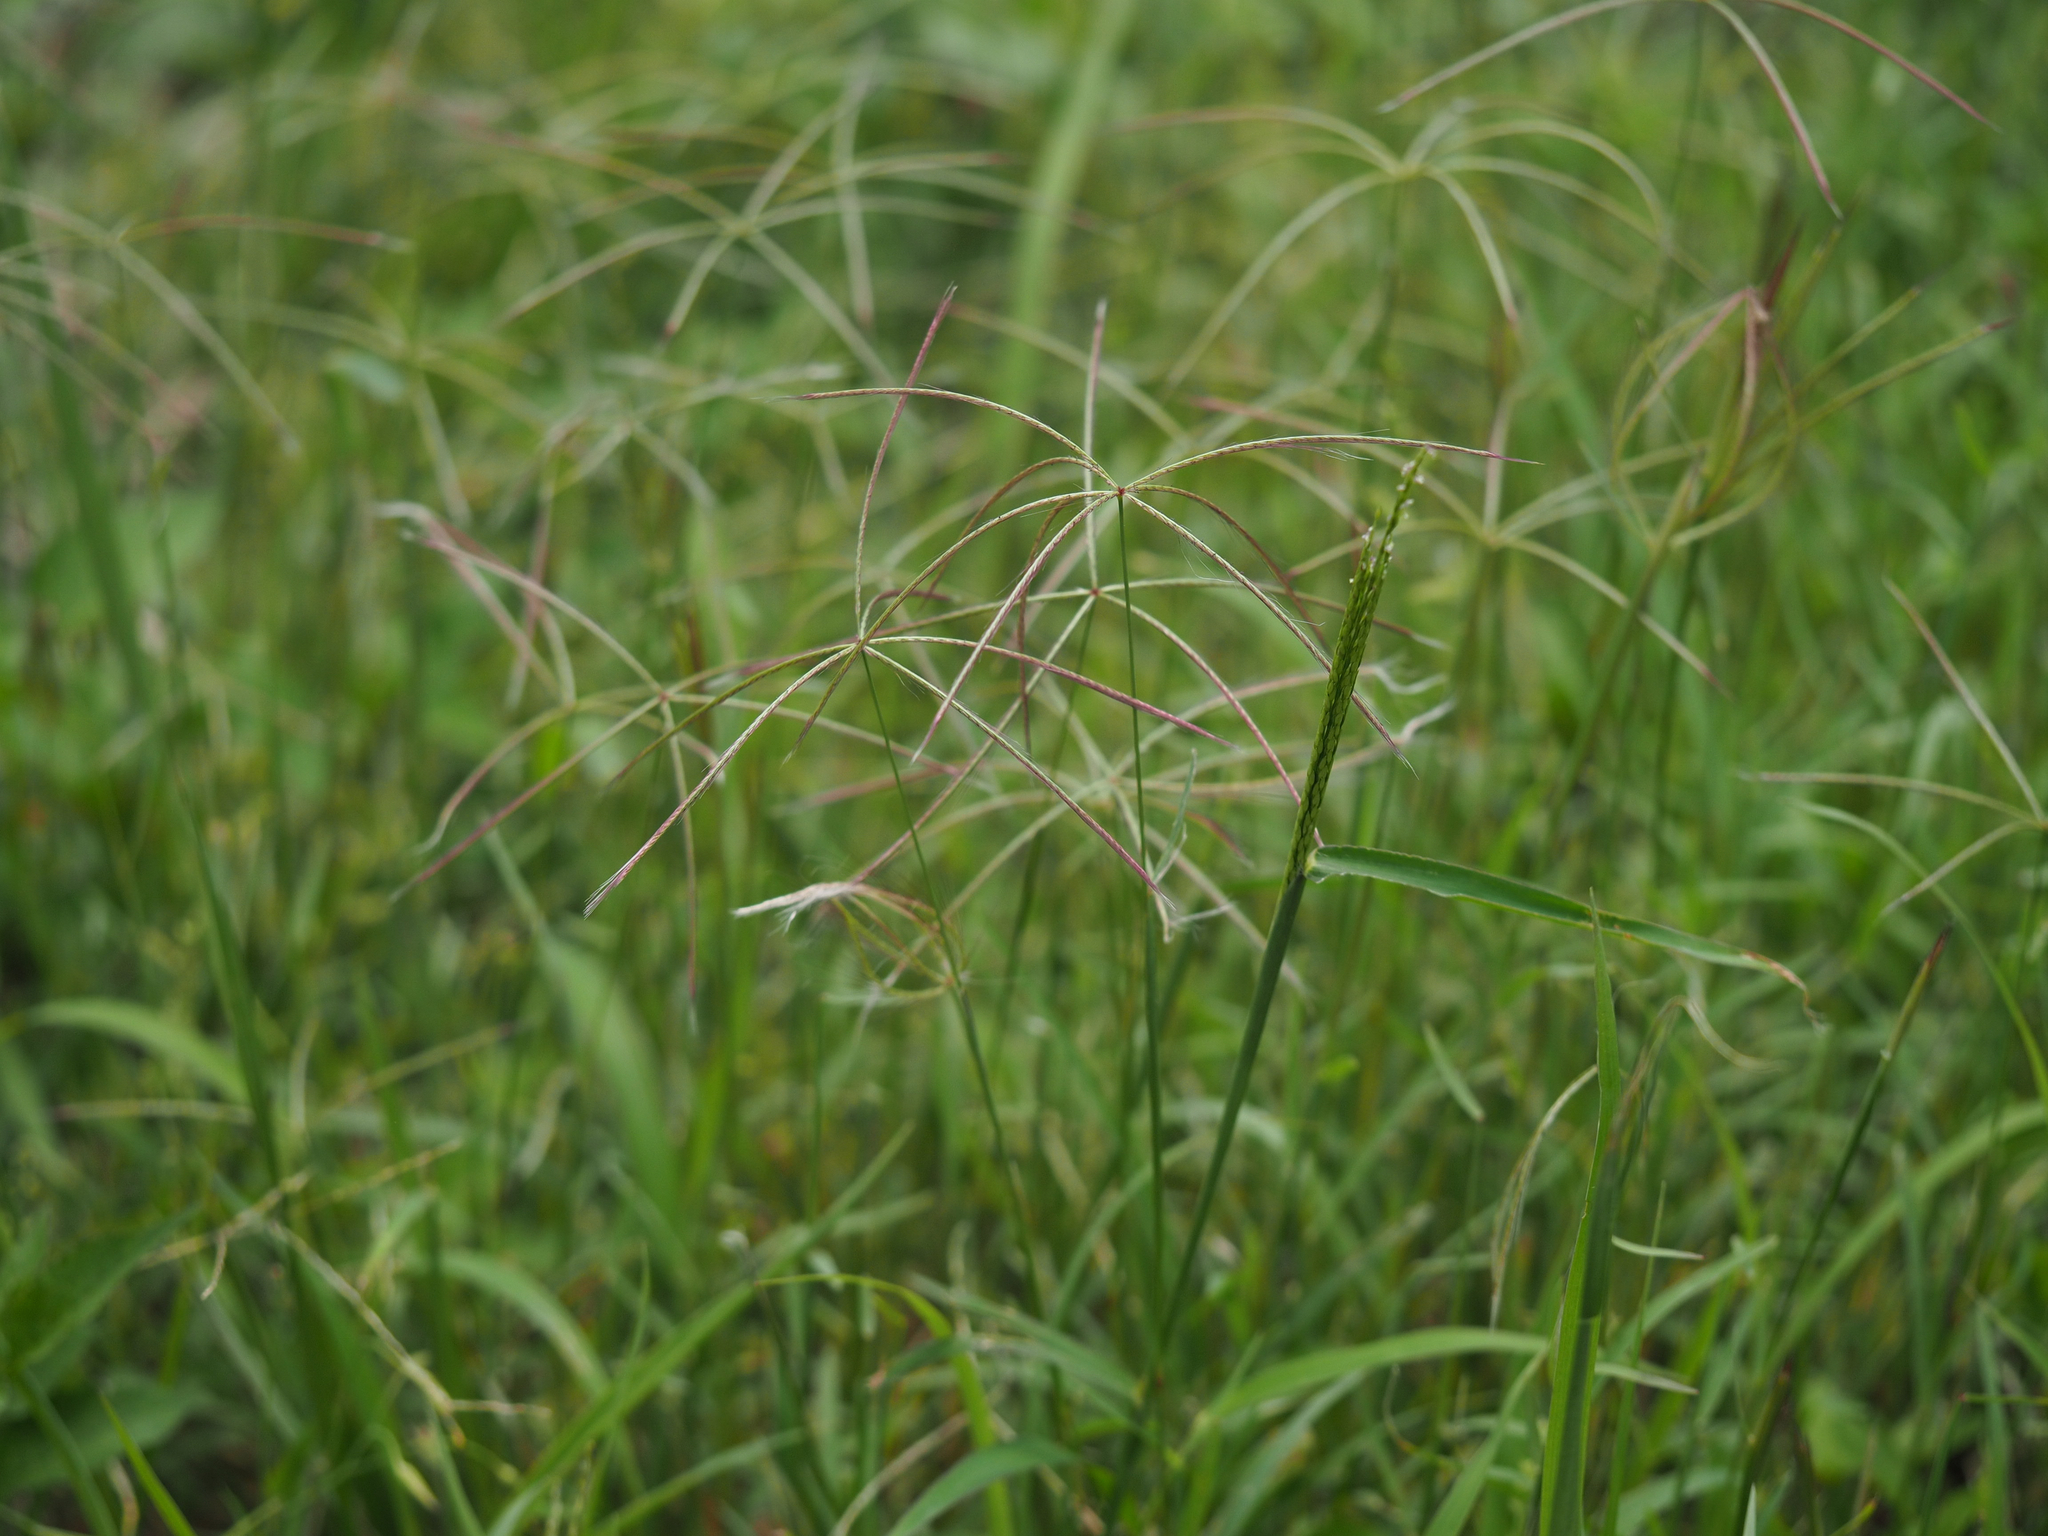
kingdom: Plantae
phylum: Tracheophyta
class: Liliopsida
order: Poales
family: Poaceae
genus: Chloris
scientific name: Chloris divaricata
